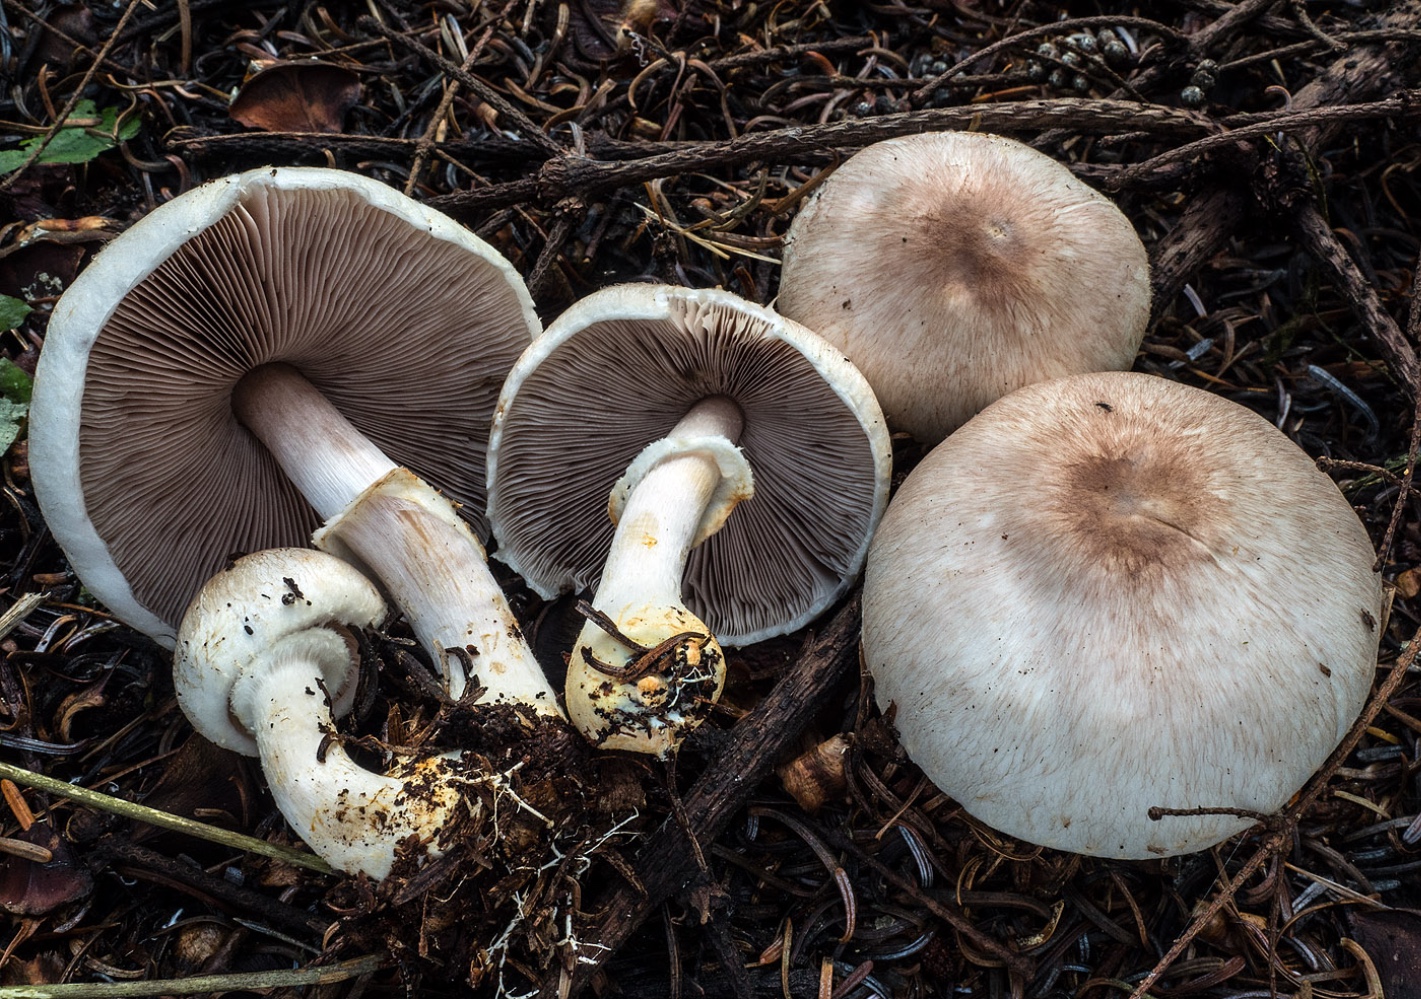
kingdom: Fungi
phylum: Basidiomycota
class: Agaricomycetes
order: Agaricales
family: Agaricaceae
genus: Agaricus
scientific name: Agaricus brunneolus
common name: purpur-champignon
